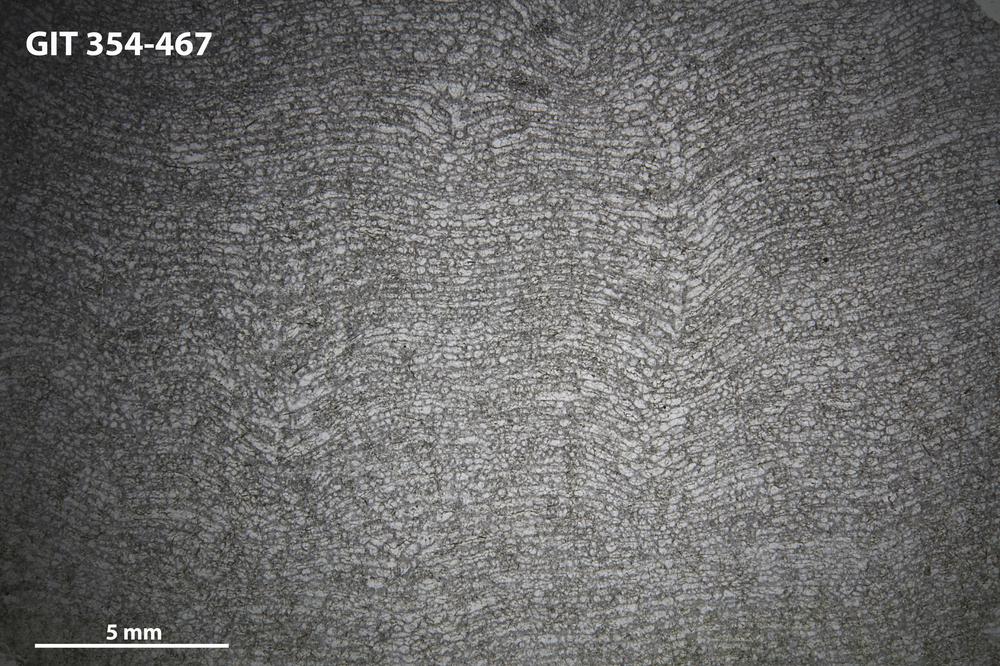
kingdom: Animalia
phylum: Porifera
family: Clathrodictyidae
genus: Clathrodictyon
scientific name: Clathrodictyon Stromatopora variolaris
